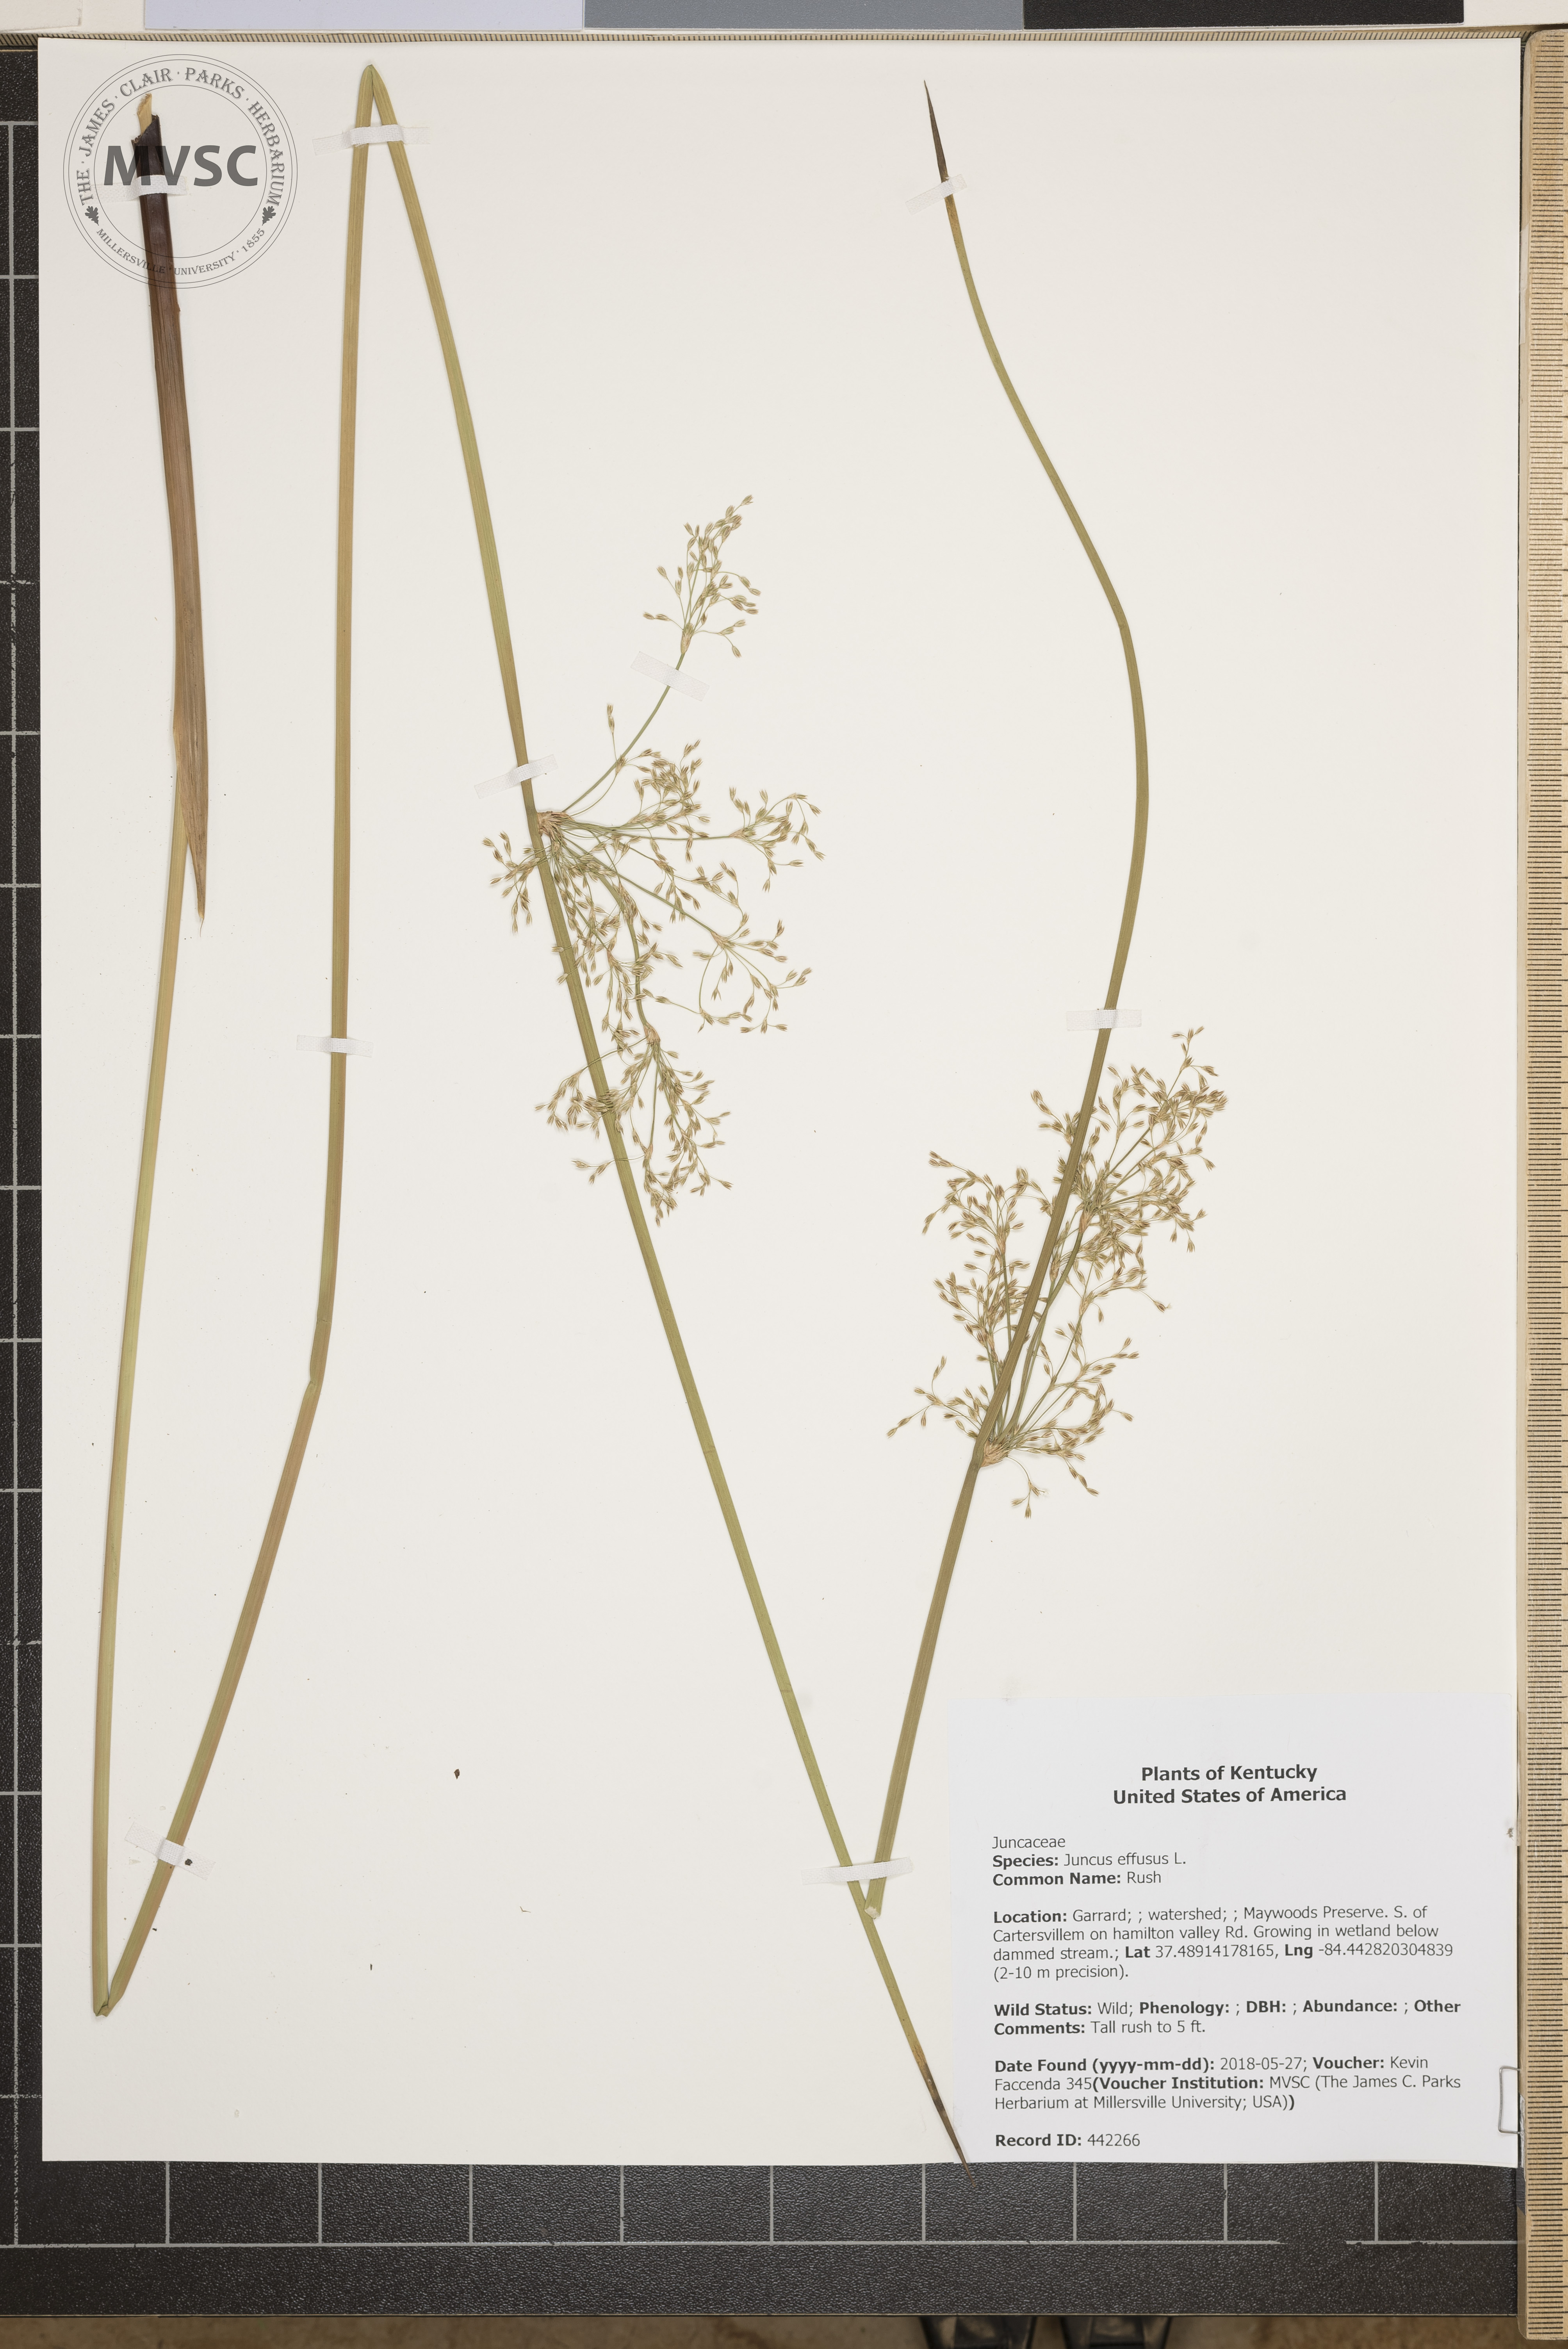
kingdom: Plantae
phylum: Tracheophyta
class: Liliopsida
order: Poales
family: Juncaceae
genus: Juncus
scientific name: Juncus effusus
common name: Rush
